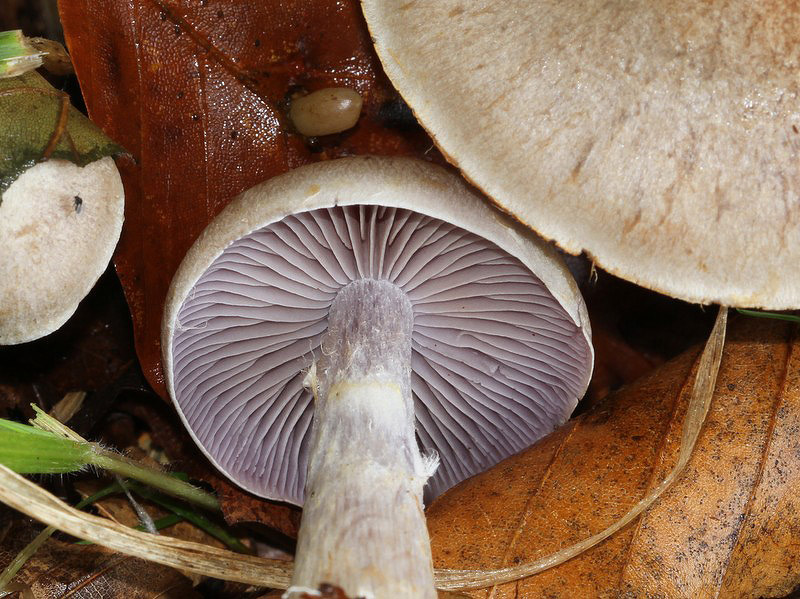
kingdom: Fungi
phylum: Basidiomycota
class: Agaricomycetes
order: Agaricales
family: Cortinariaceae
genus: Cortinarius
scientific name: Cortinarius pelerinii
